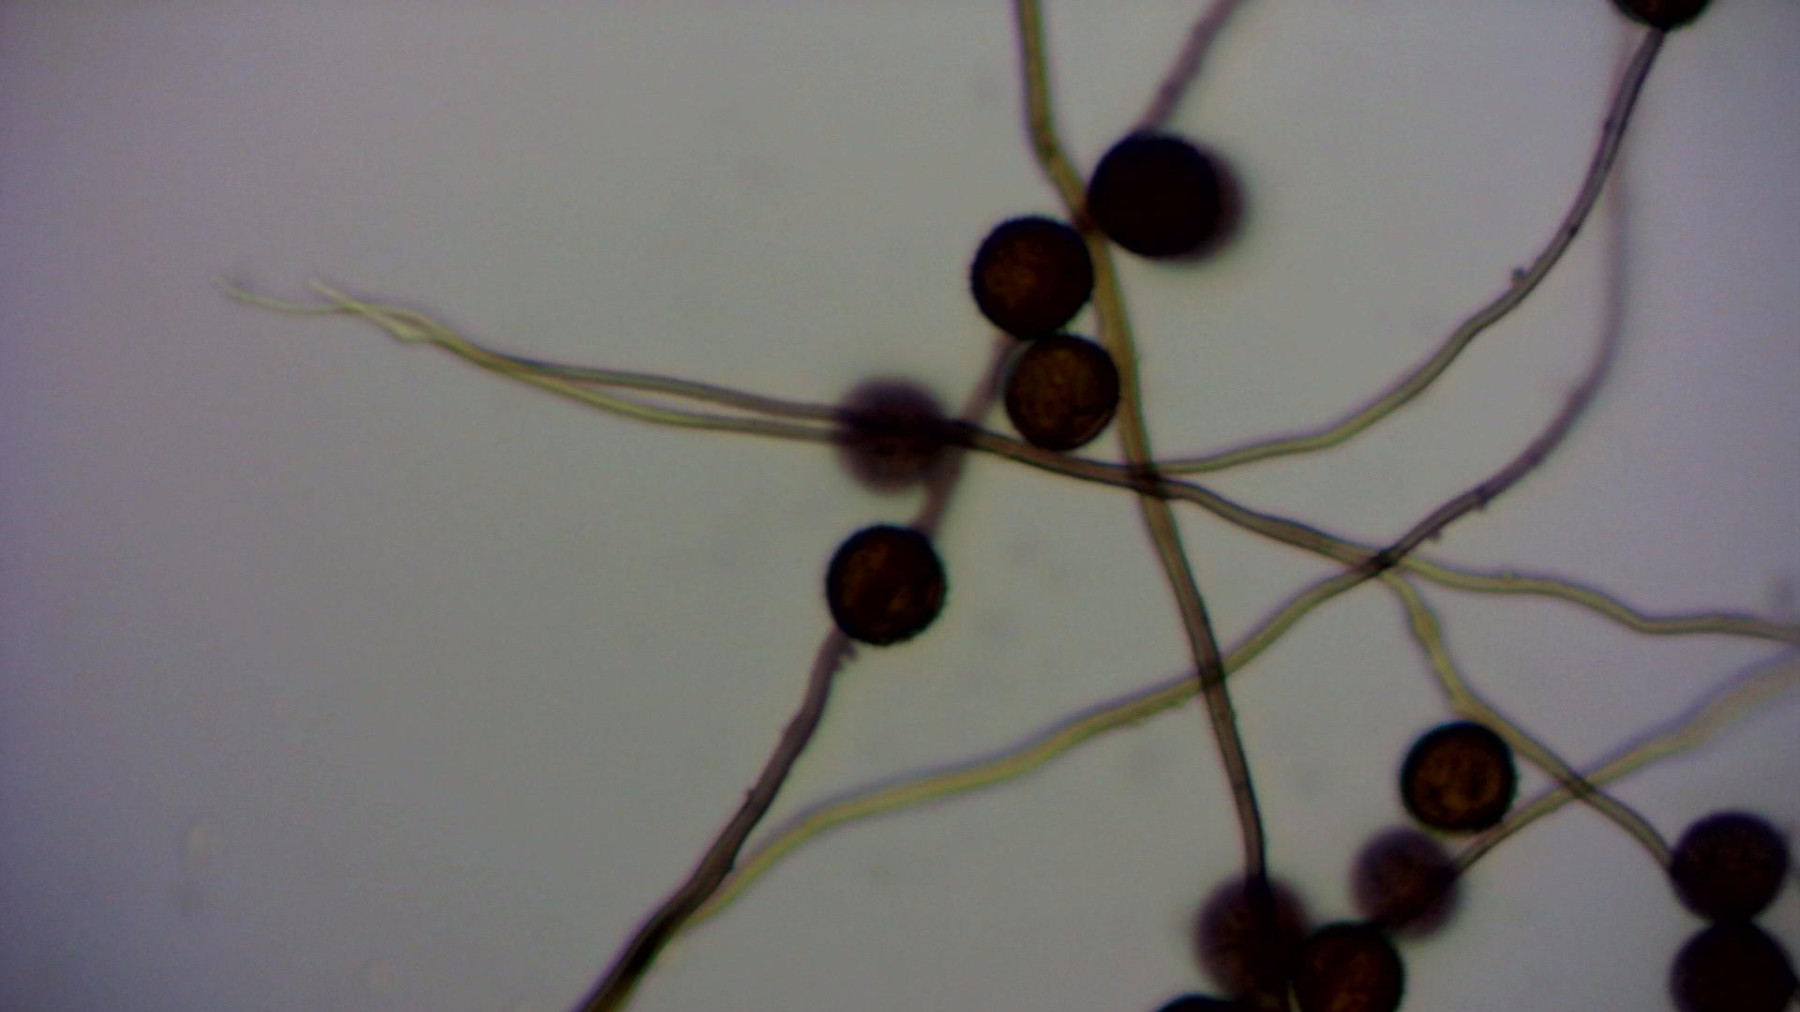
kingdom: Protozoa
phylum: Mycetozoa
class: Myxomycetes
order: Physarales
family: Didymiaceae
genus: Diderma
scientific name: Diderma spumarioides
